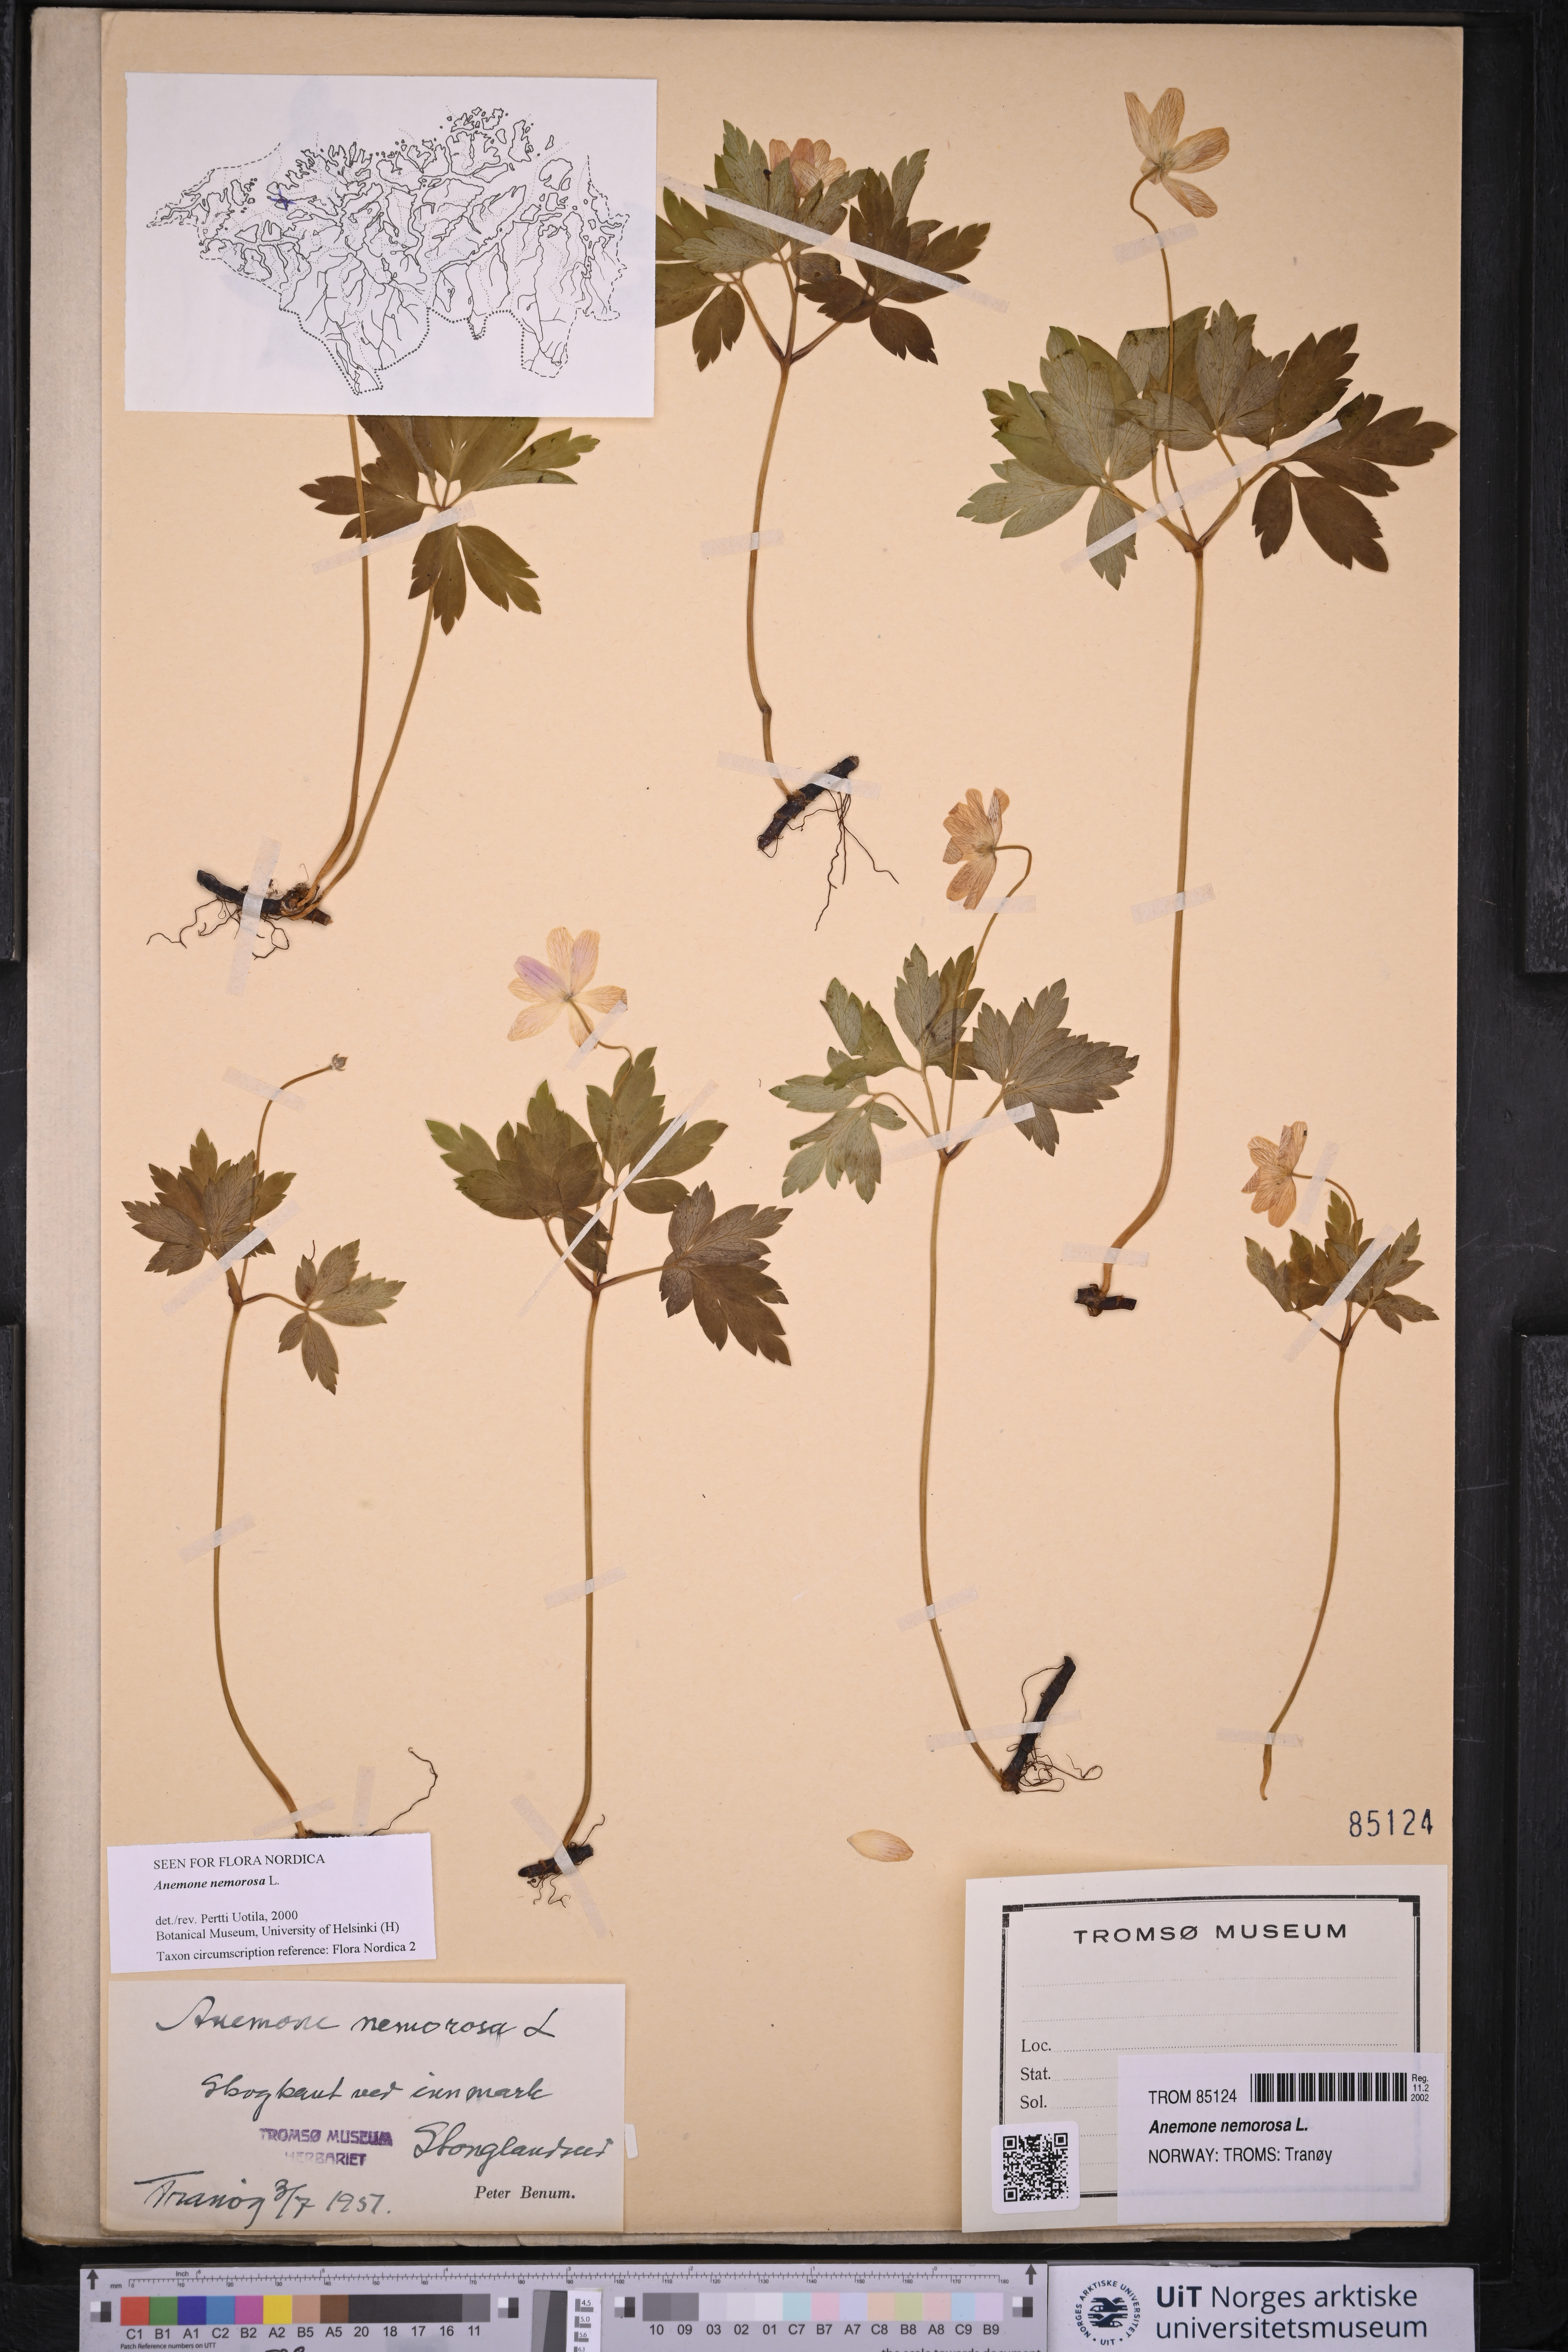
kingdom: Plantae
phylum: Tracheophyta
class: Magnoliopsida
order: Ranunculales
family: Ranunculaceae
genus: Anemone
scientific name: Anemone nemorosa
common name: Wood anemone
